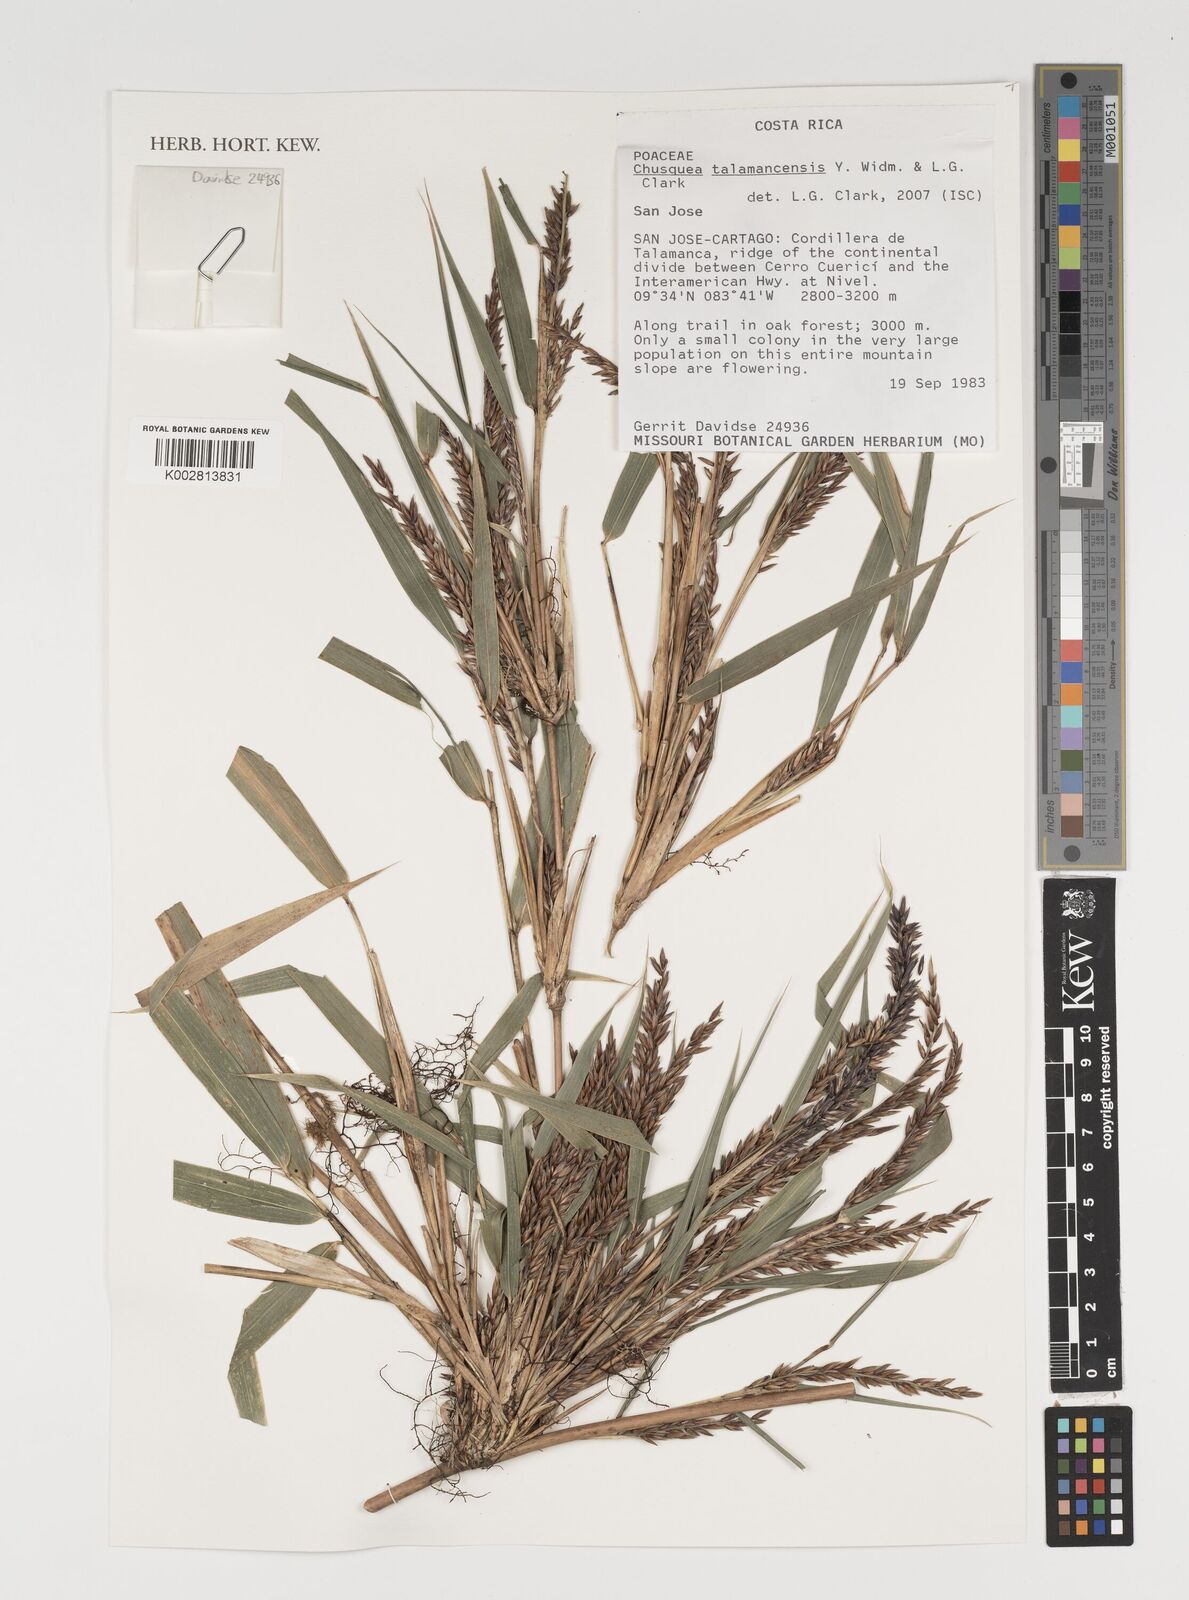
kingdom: Plantae
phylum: Tracheophyta
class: Liliopsida
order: Poales
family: Poaceae
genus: Chusquea
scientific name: Chusquea talamancensis
